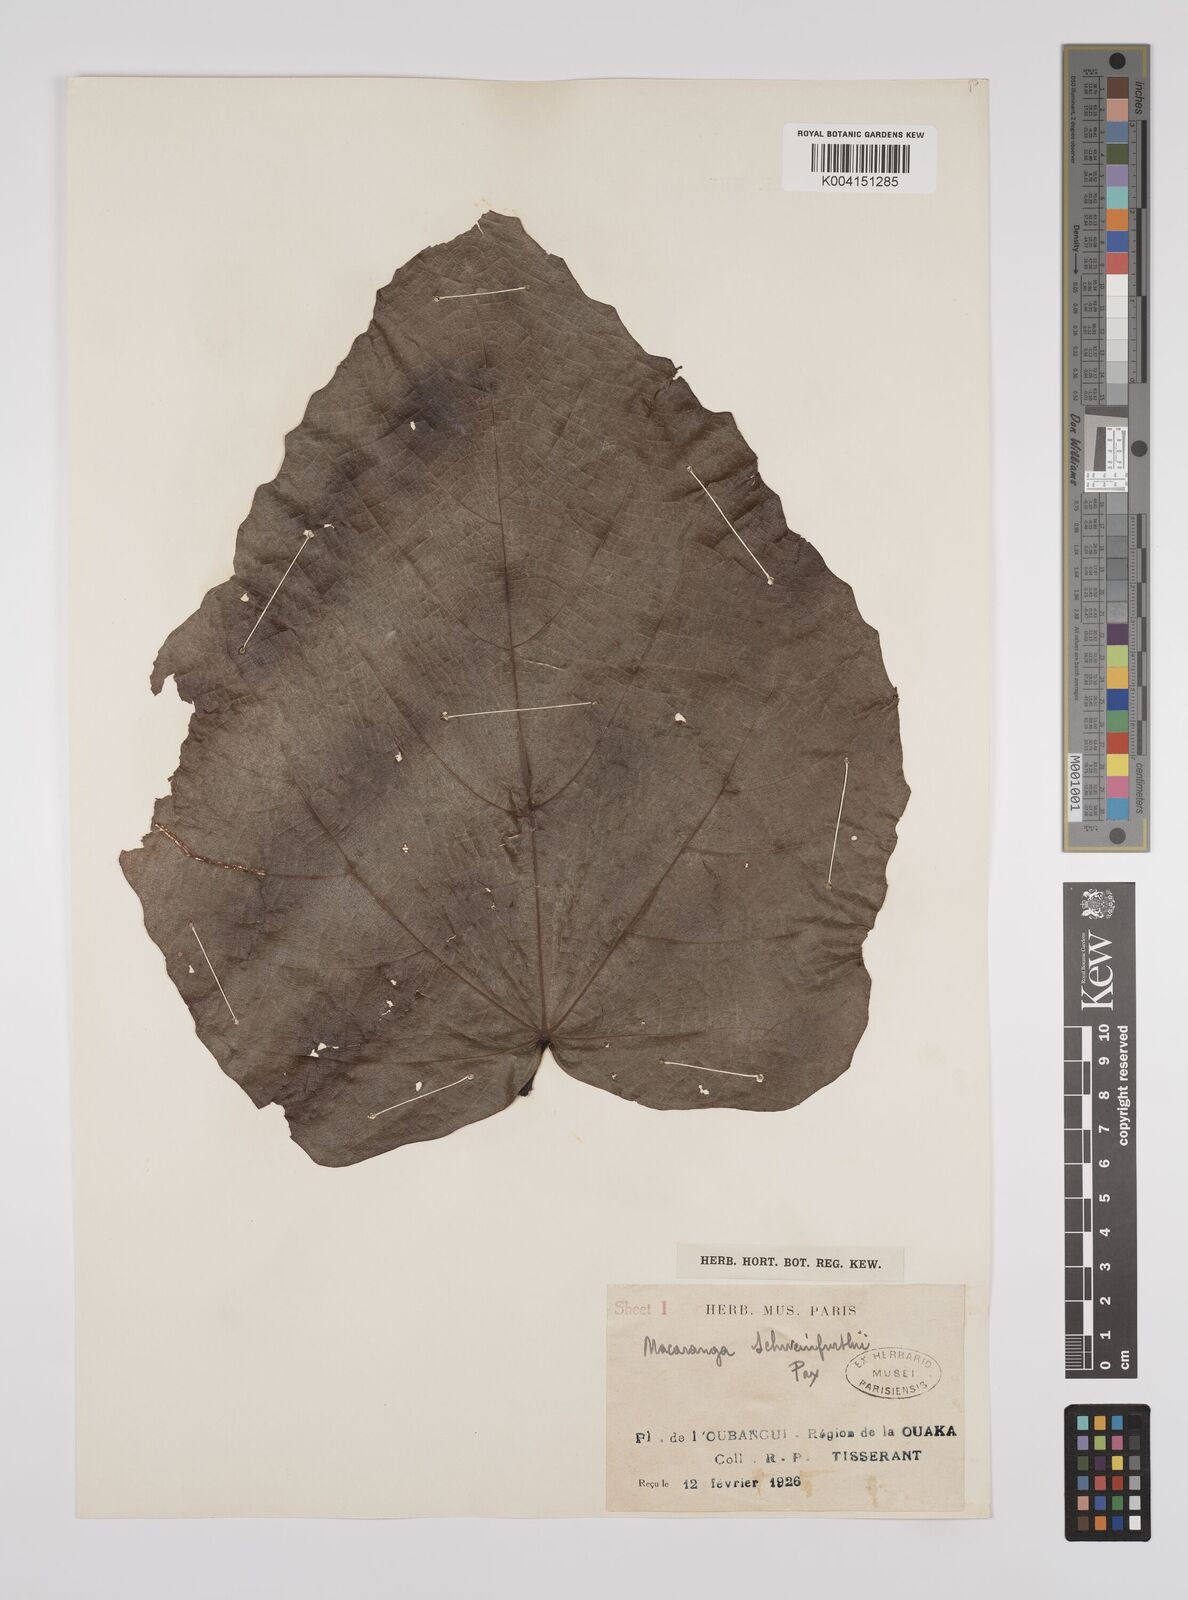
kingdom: Plantae
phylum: Tracheophyta
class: Magnoliopsida
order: Malpighiales
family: Euphorbiaceae
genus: Macaranga
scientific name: Macaranga schweinfurthii
